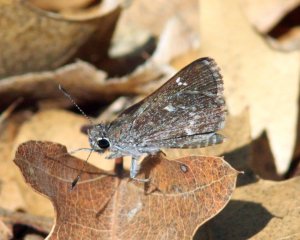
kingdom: Animalia
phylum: Arthropoda
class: Insecta
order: Lepidoptera
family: Hesperiidae
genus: Mastor
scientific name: Mastor aenus
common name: Bronze Roadside-Skipper
